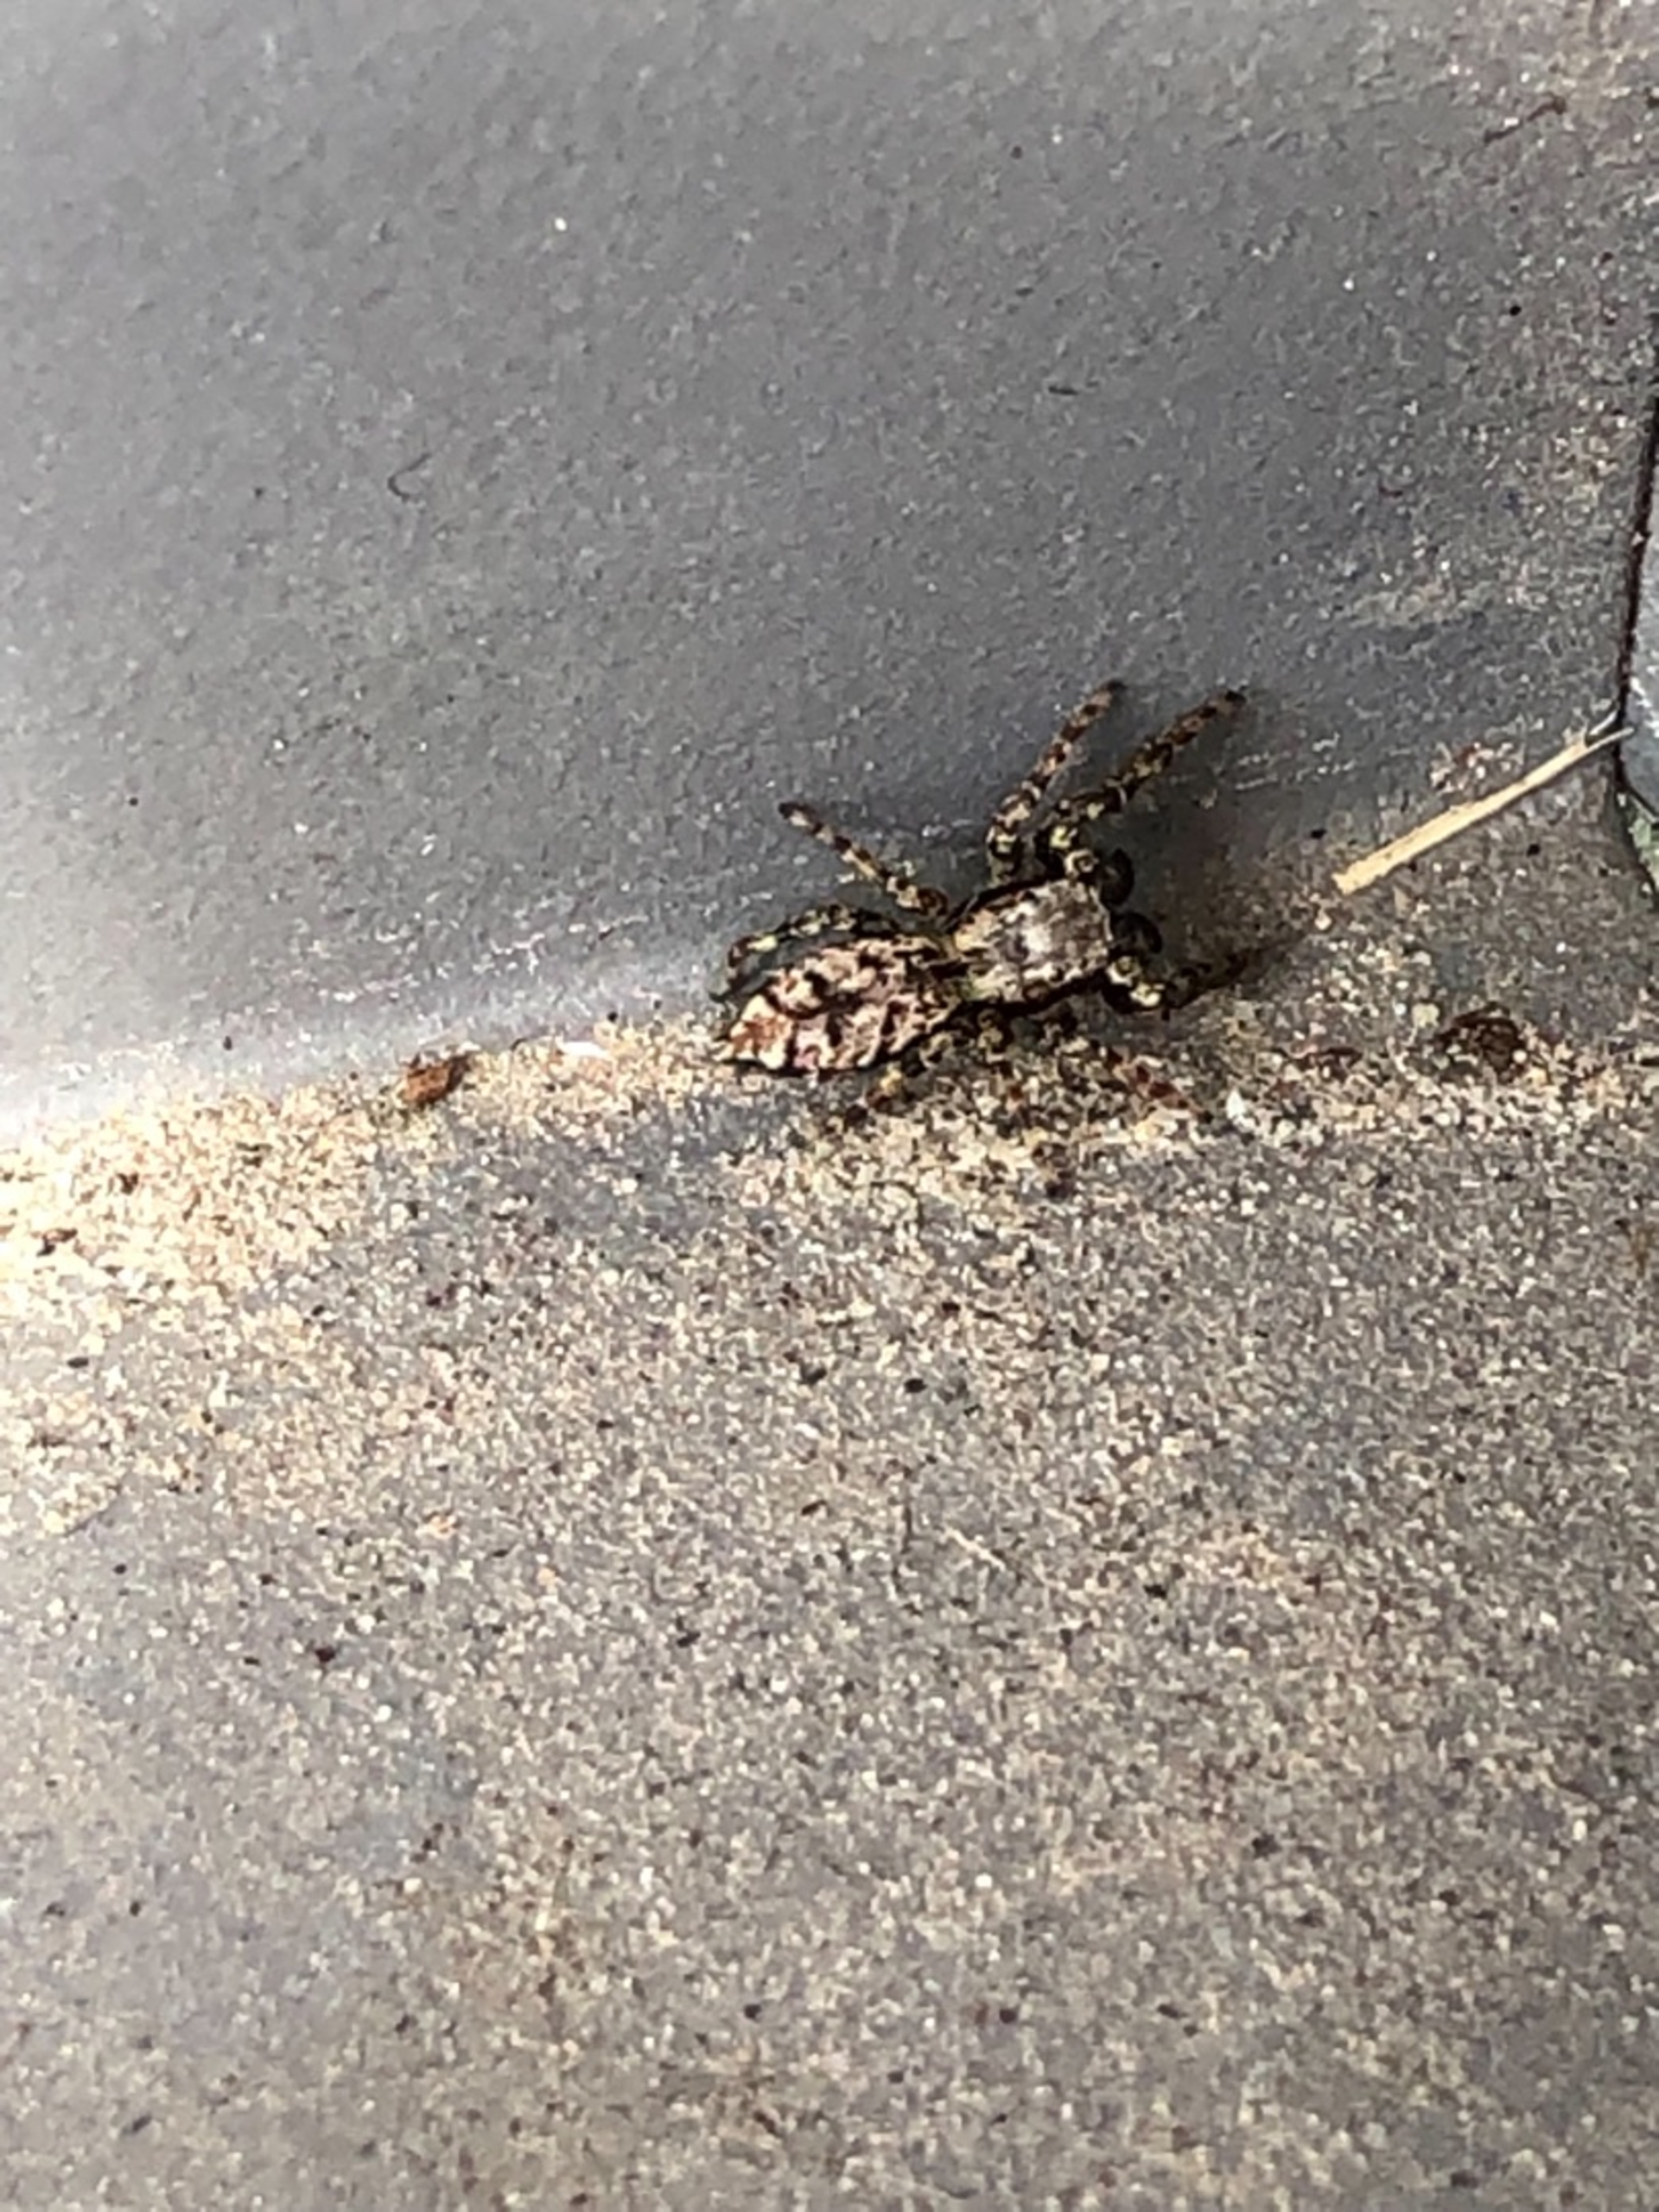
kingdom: Animalia
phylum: Arthropoda
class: Arachnida
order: Araneae
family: Salticidae
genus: Marpissa
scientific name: Marpissa muscosa
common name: Stor springedderkop
